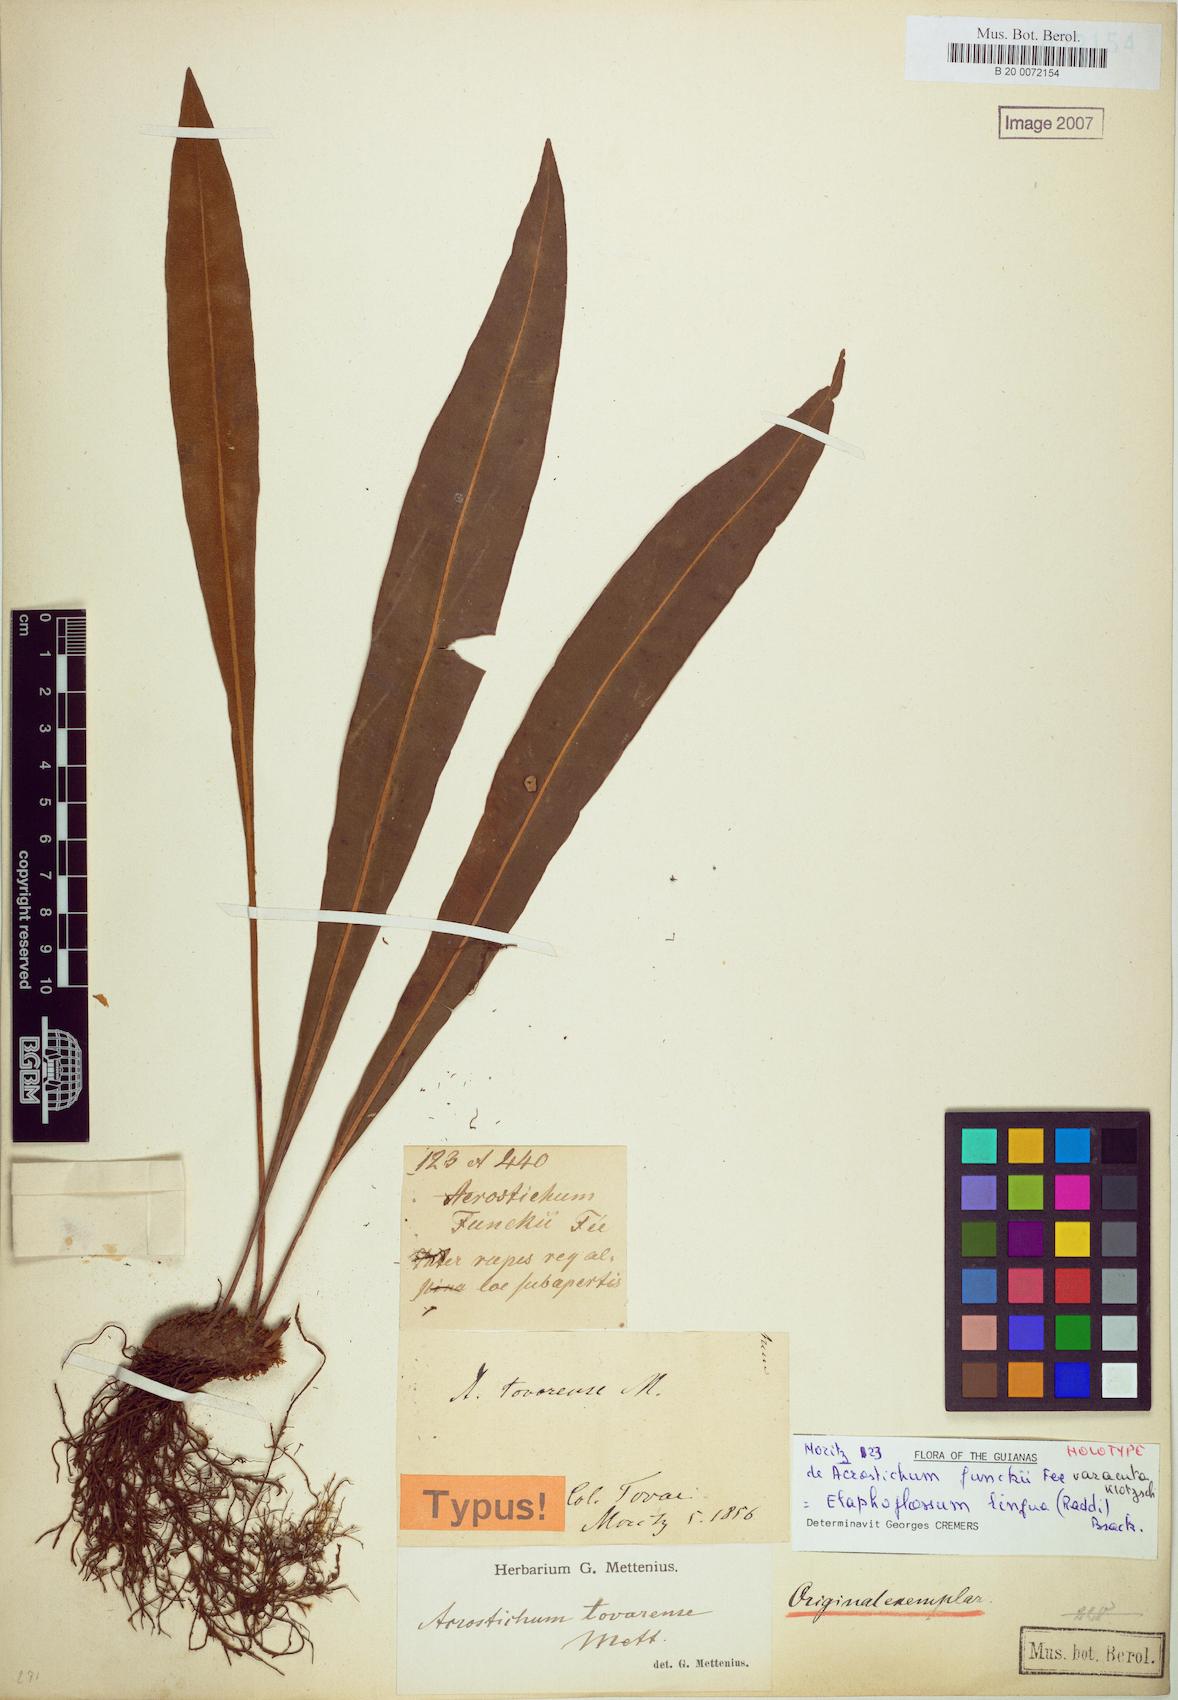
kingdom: Plantae
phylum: Tracheophyta
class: Polypodiopsida
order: Polypodiales
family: Dryopteridaceae
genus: Elaphoglossum
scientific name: Elaphoglossum lingua
